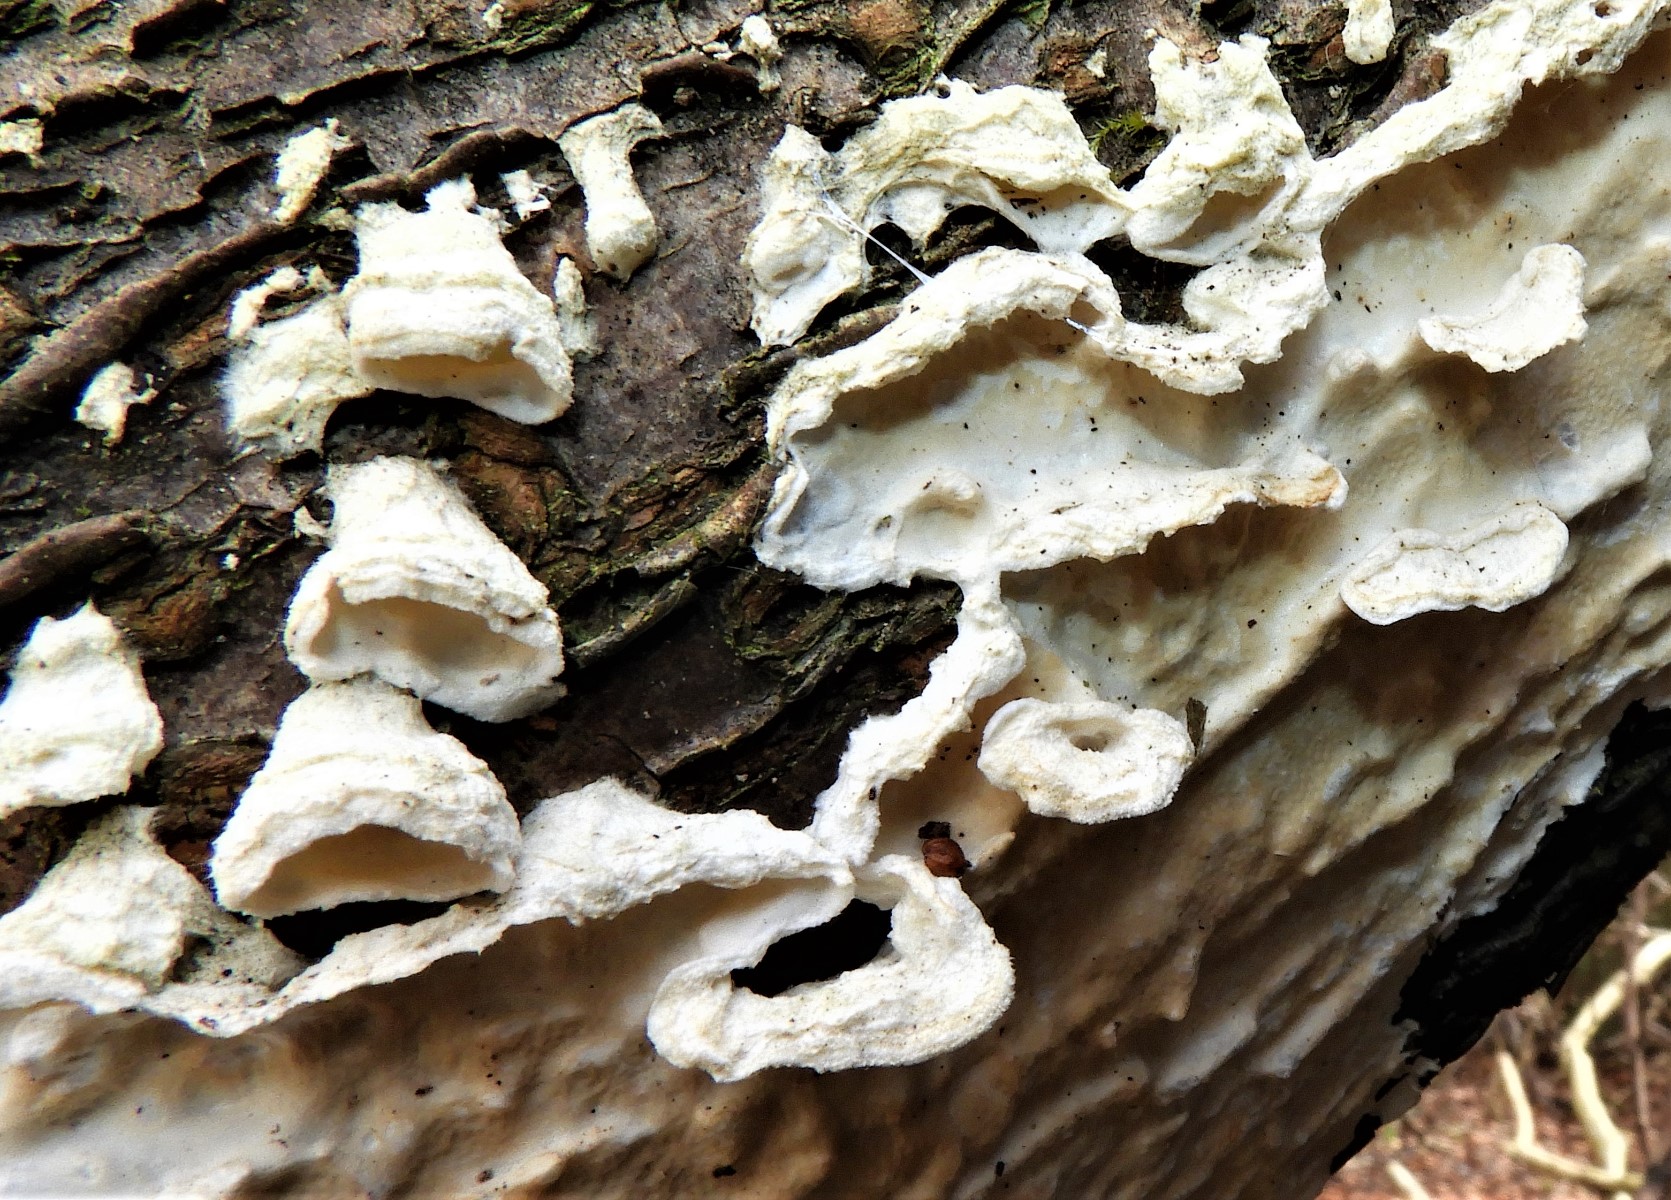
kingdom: Fungi
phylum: Basidiomycota
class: Agaricomycetes
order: Polyporales
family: Irpicaceae
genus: Byssomerulius
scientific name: Byssomerulius corium
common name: læder-åresvamp
